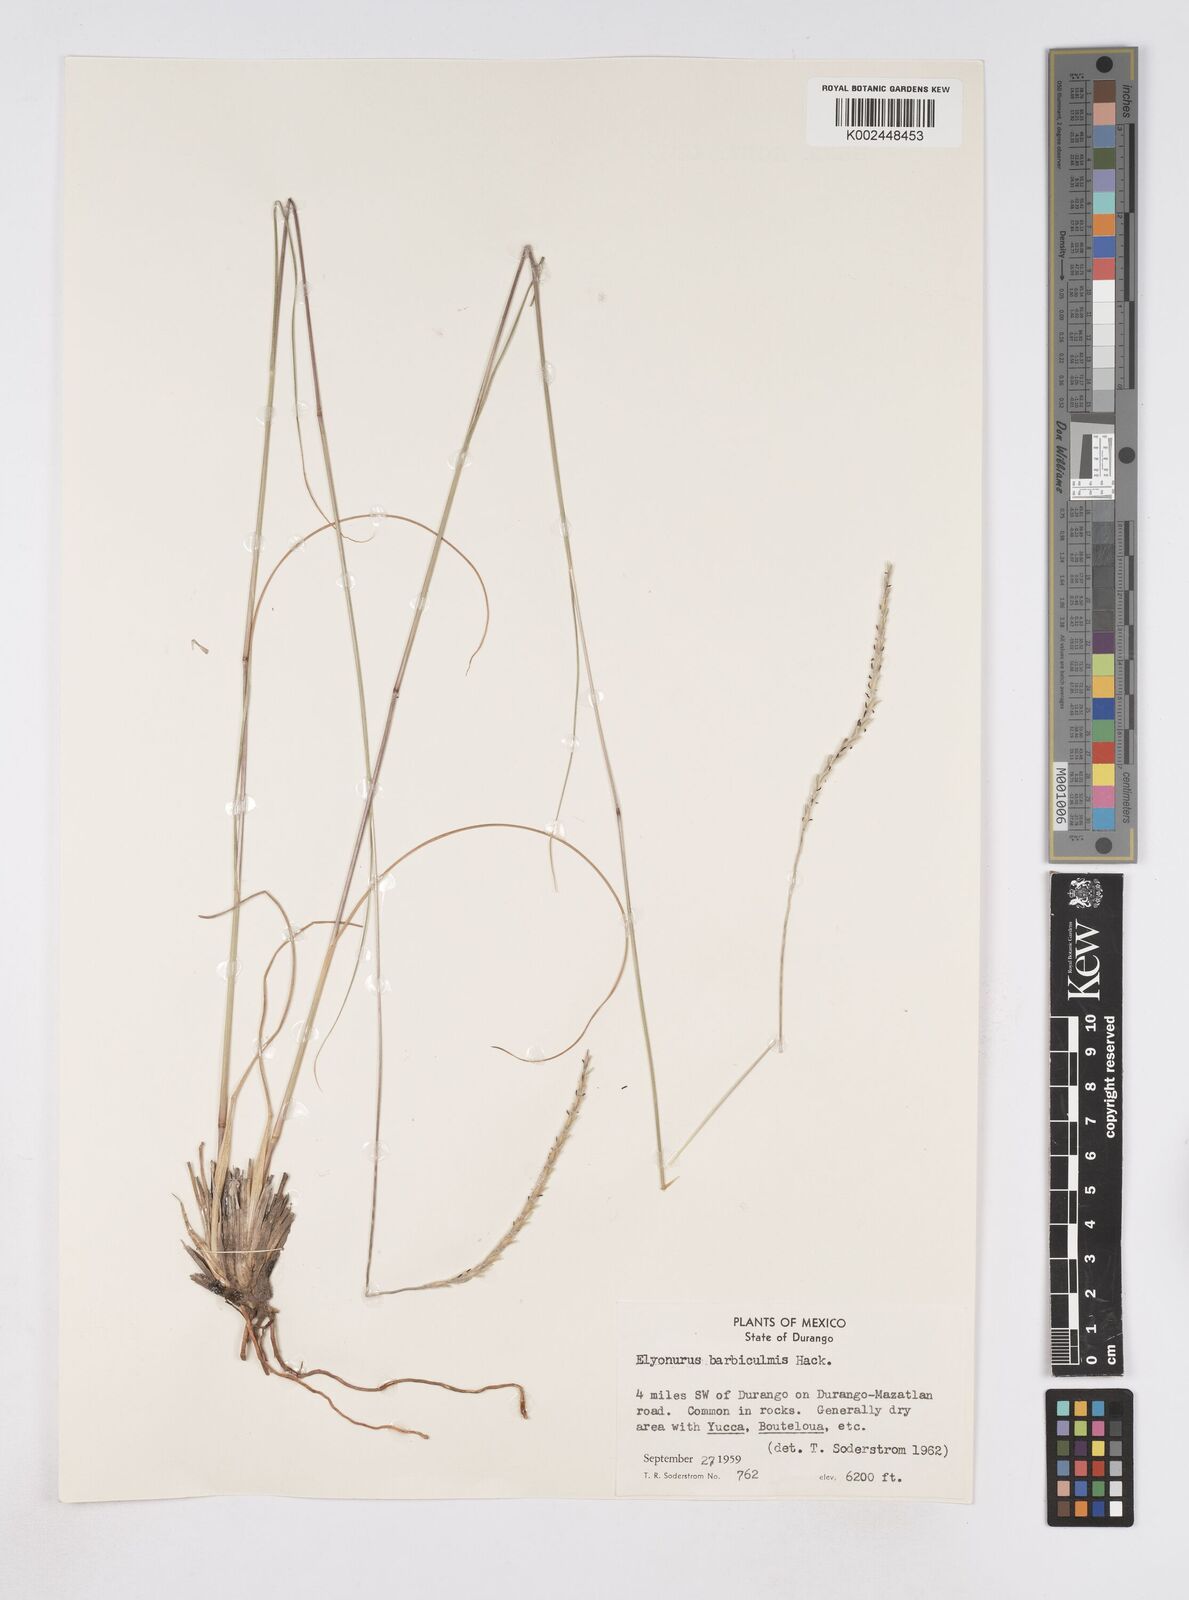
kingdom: Plantae
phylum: Tracheophyta
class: Liliopsida
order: Poales
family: Poaceae
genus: Elionurus
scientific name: Elionurus barbiculmis
